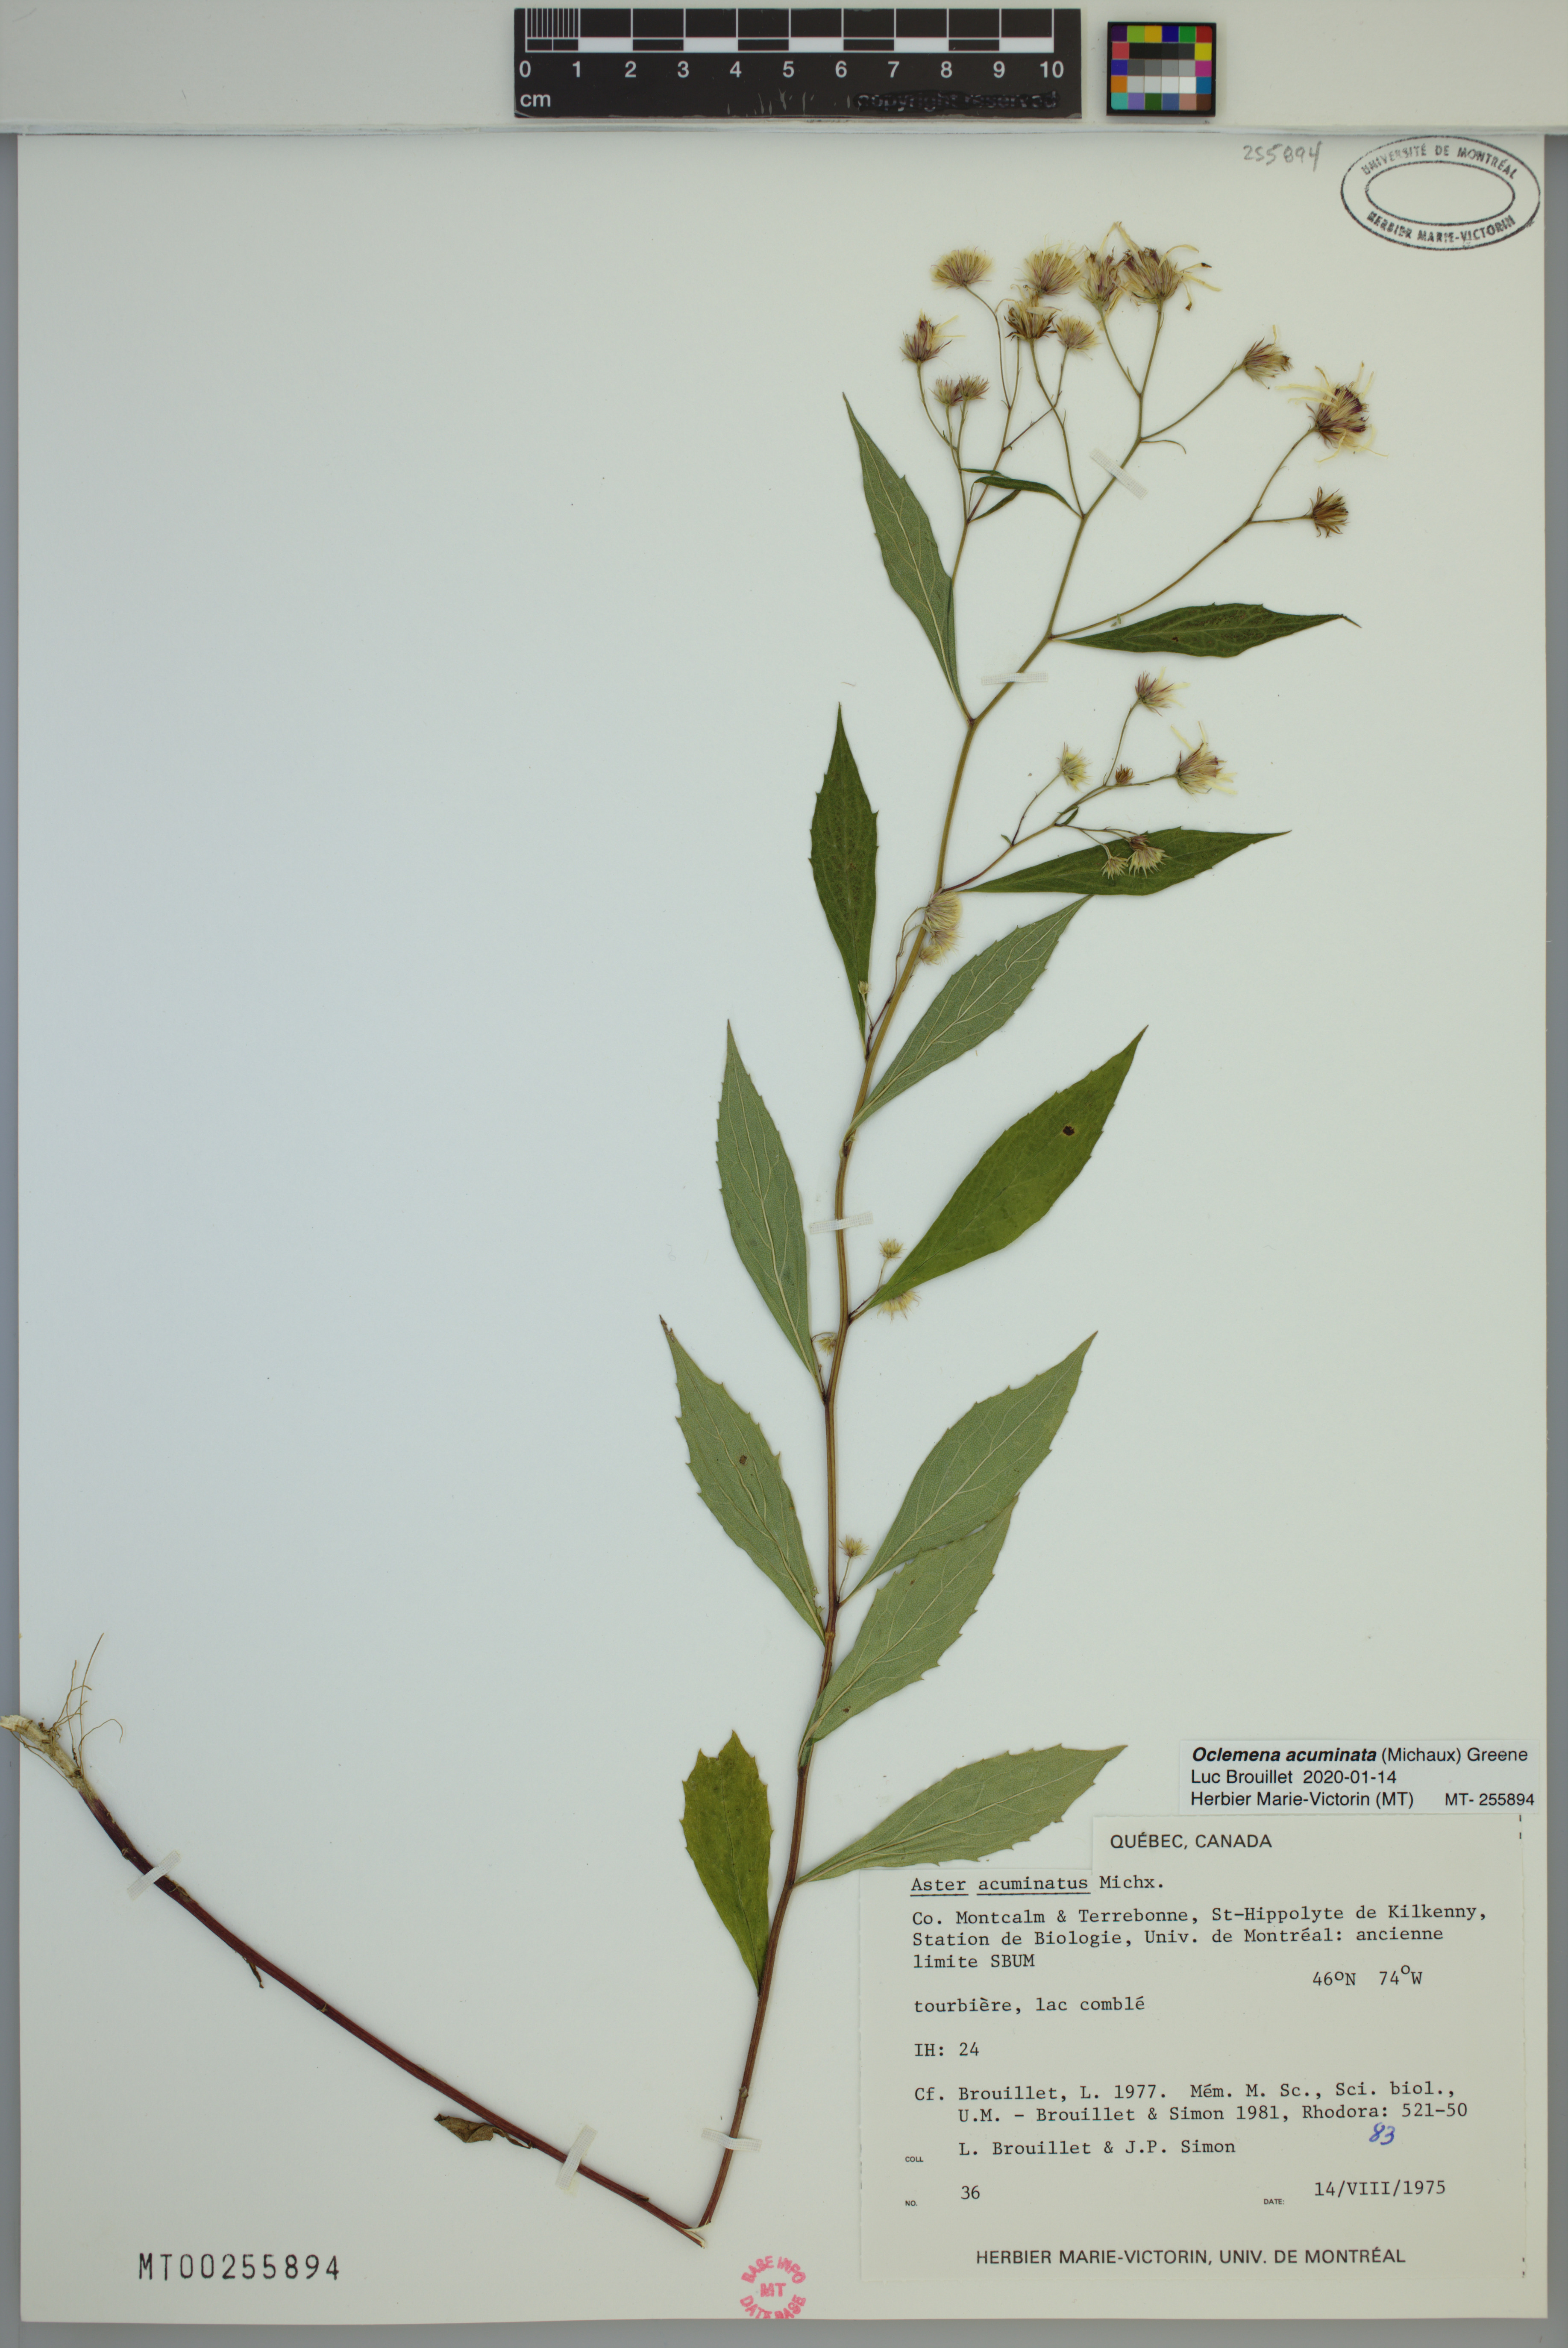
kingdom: Plantae
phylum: Tracheophyta
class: Magnoliopsida
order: Asterales
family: Asteraceae
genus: Oclemena
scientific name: Oclemena acuminata
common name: Mountain aster
